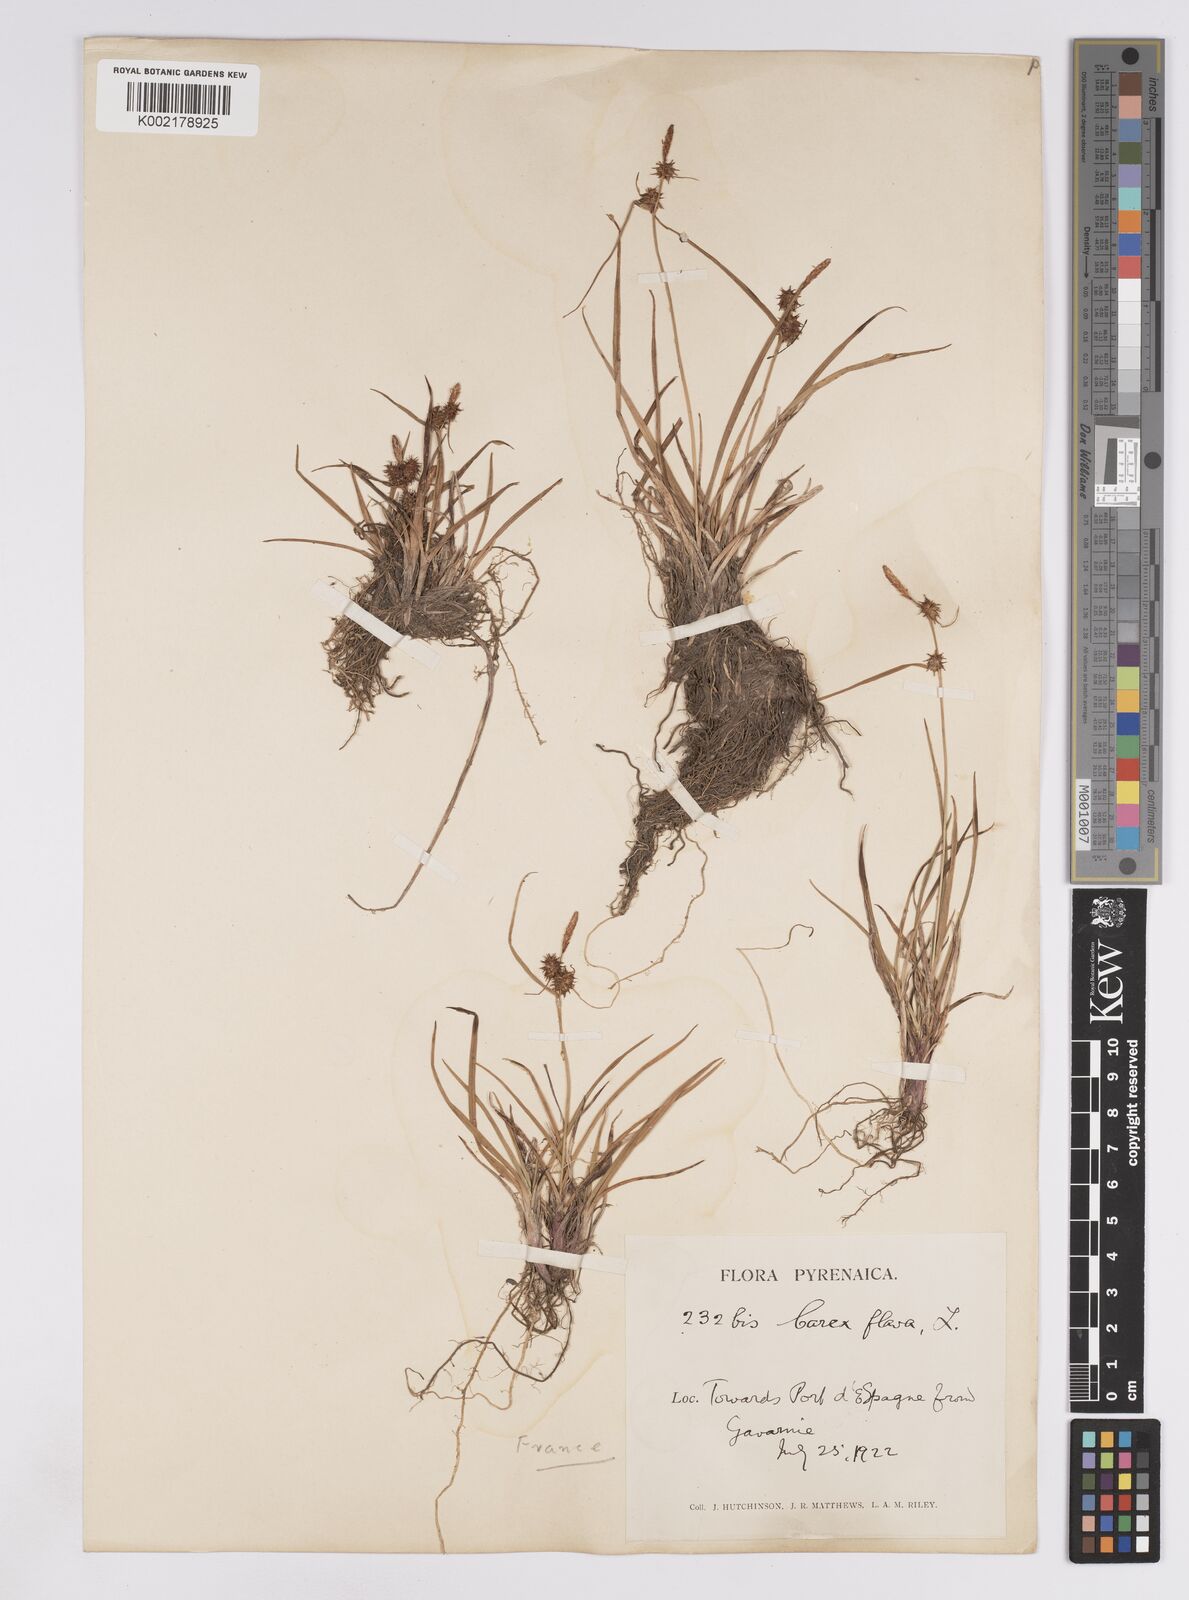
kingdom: Plantae
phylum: Tracheophyta
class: Liliopsida
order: Poales
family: Cyperaceae
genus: Carex
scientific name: Carex lepidocarpa
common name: Long-stalked yellow-sedge
